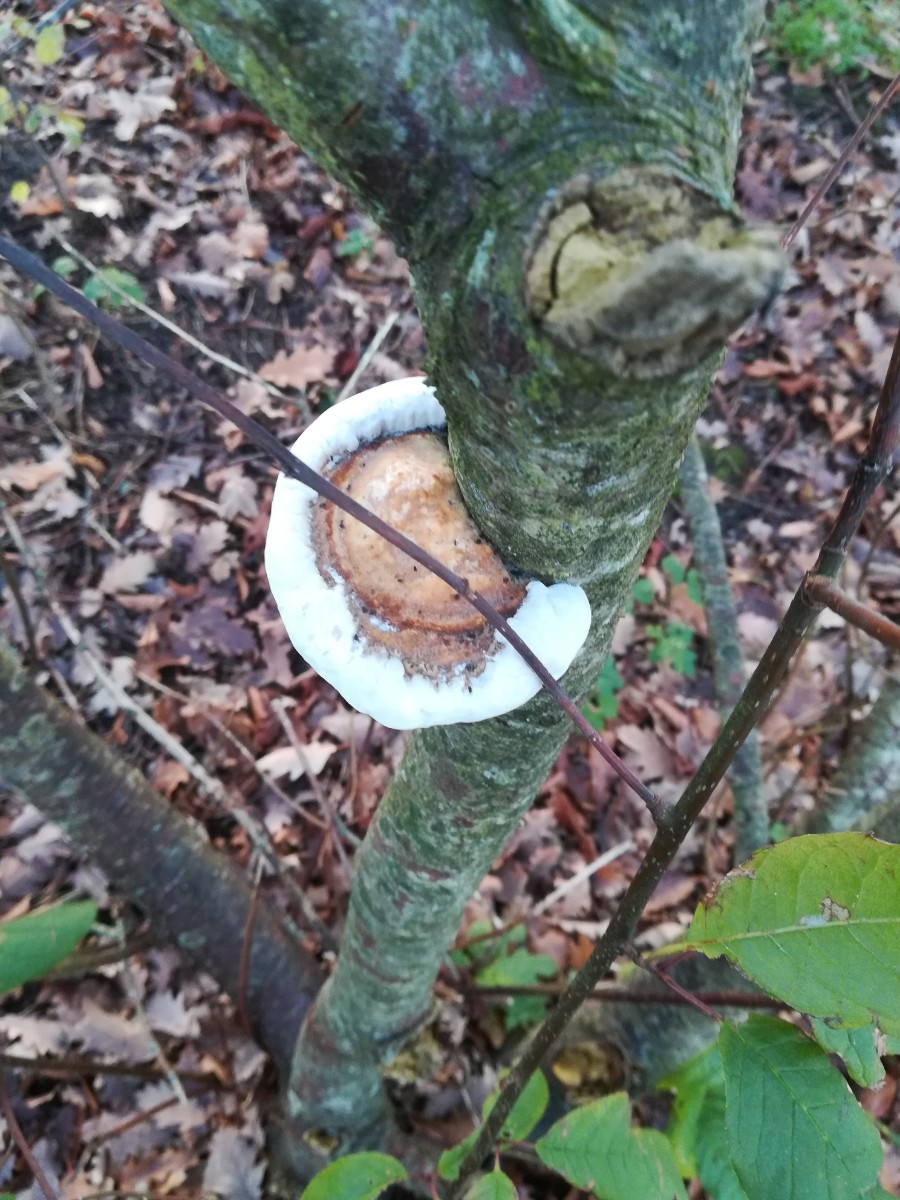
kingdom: Fungi
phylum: Basidiomycota
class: Agaricomycetes
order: Polyporales
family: Polyporaceae
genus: Daedaleopsis
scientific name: Daedaleopsis confragosa
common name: rødmende læderporesvamp
